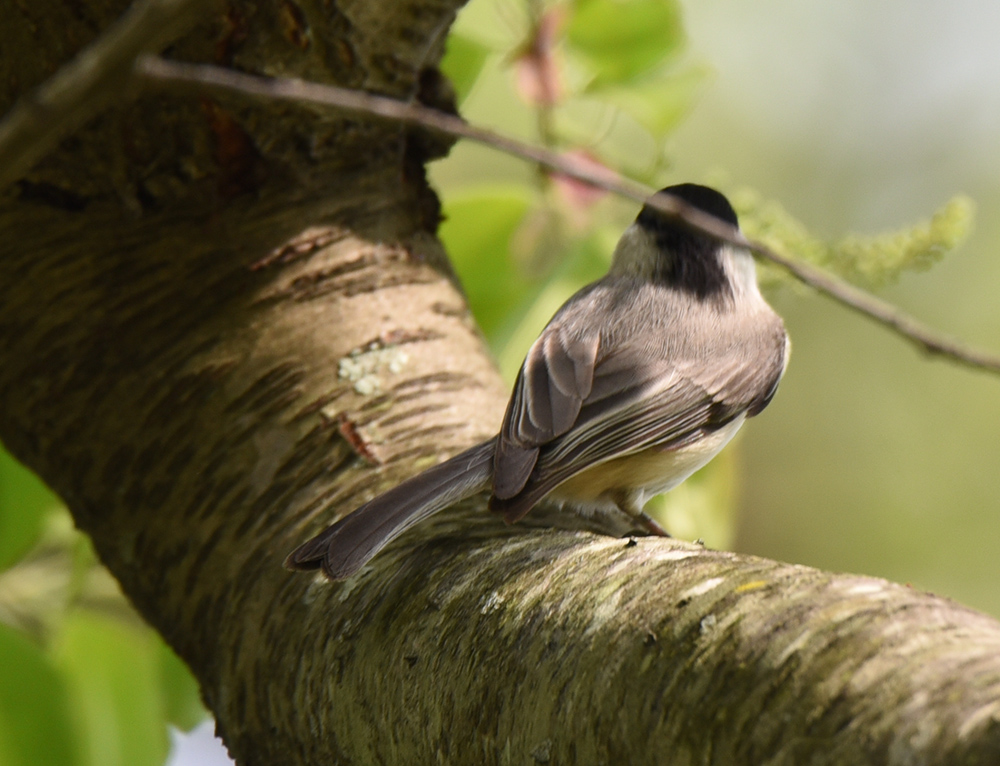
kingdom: Animalia
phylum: Chordata
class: Aves
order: Passeriformes
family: Paridae
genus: Poecile
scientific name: Poecile atricapillus
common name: Black-capped chickadee
